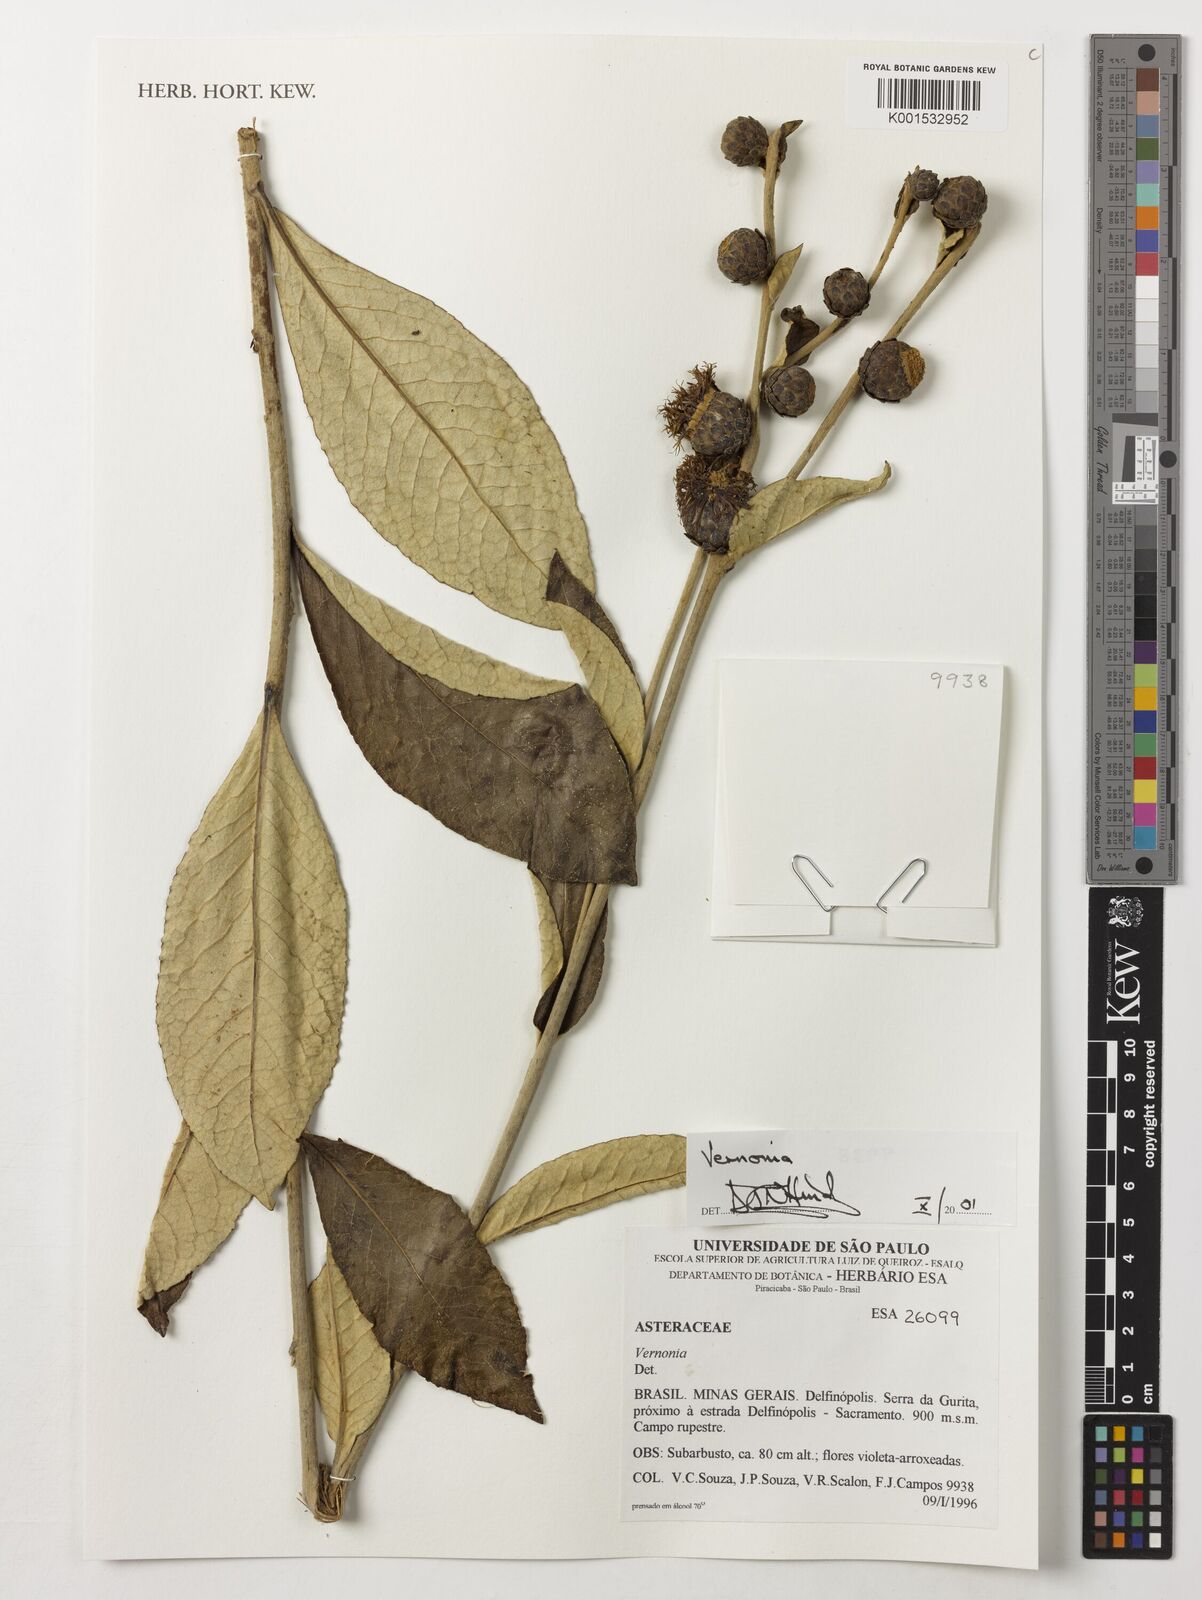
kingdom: Plantae
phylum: Tracheophyta
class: Magnoliopsida
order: Asterales
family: Asteraceae
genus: Vernonia
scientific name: Vernonia
